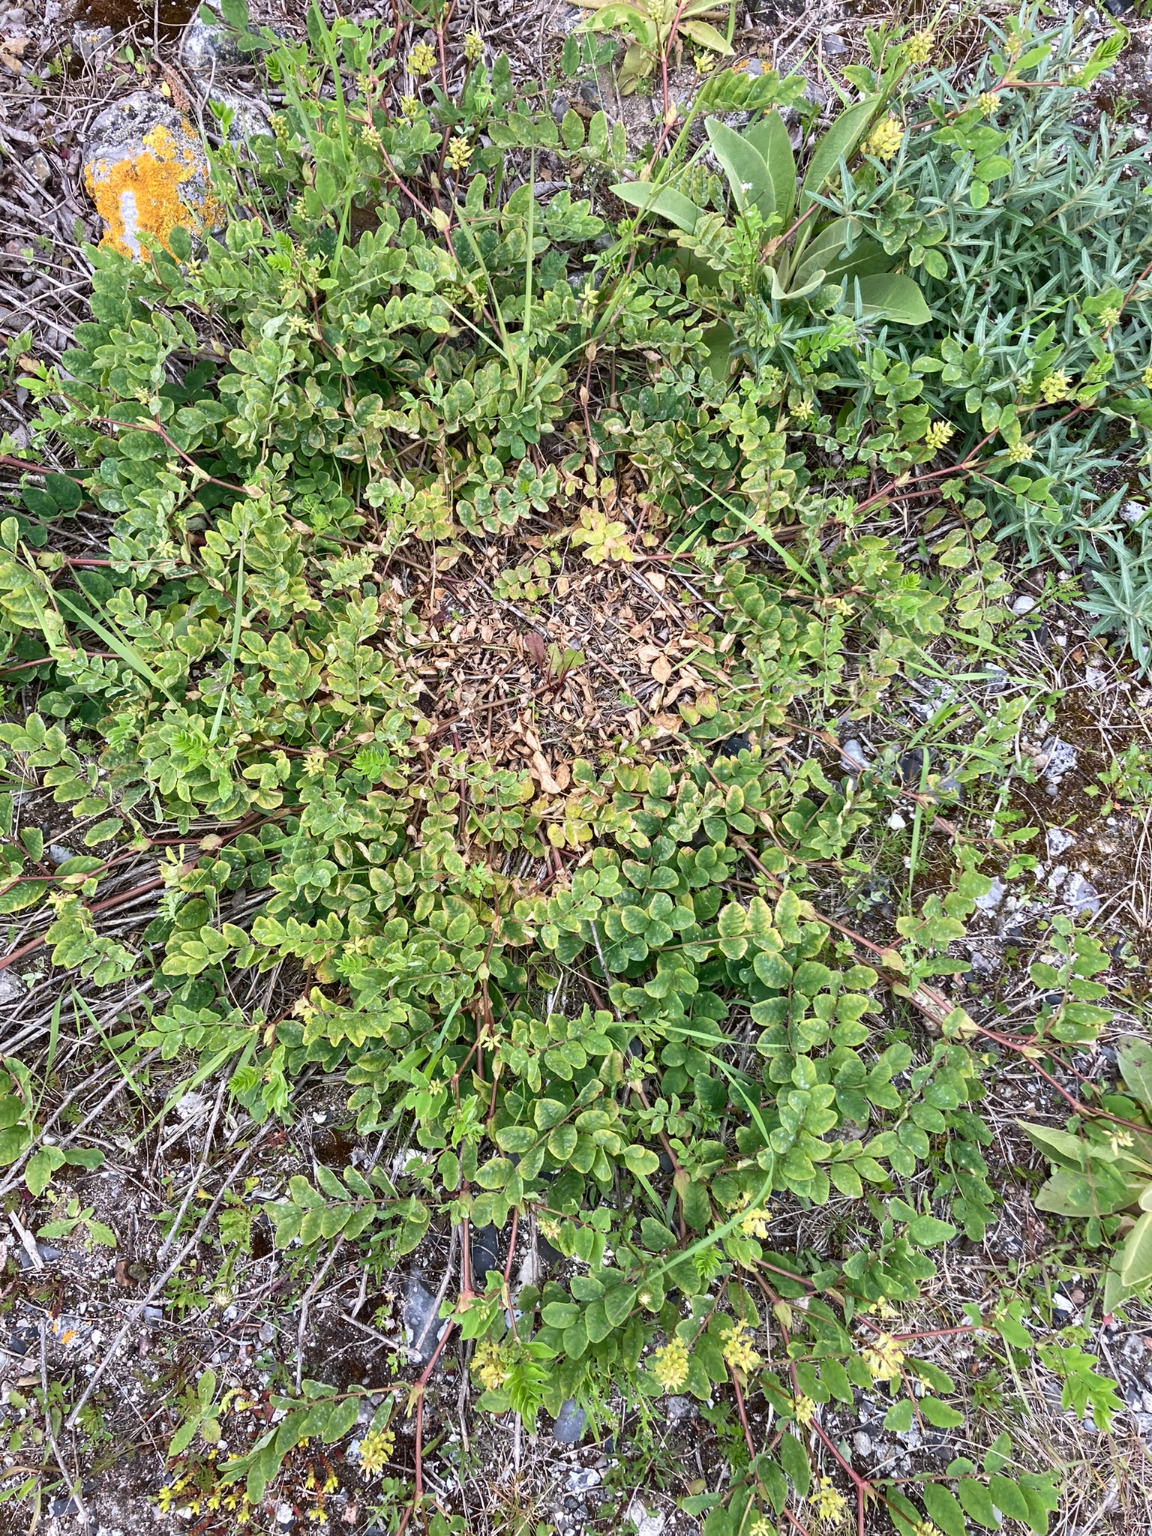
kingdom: Plantae
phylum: Tracheophyta
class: Magnoliopsida
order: Fabales
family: Fabaceae
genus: Astragalus
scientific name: Astragalus glycyphyllos
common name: Sød astragel
